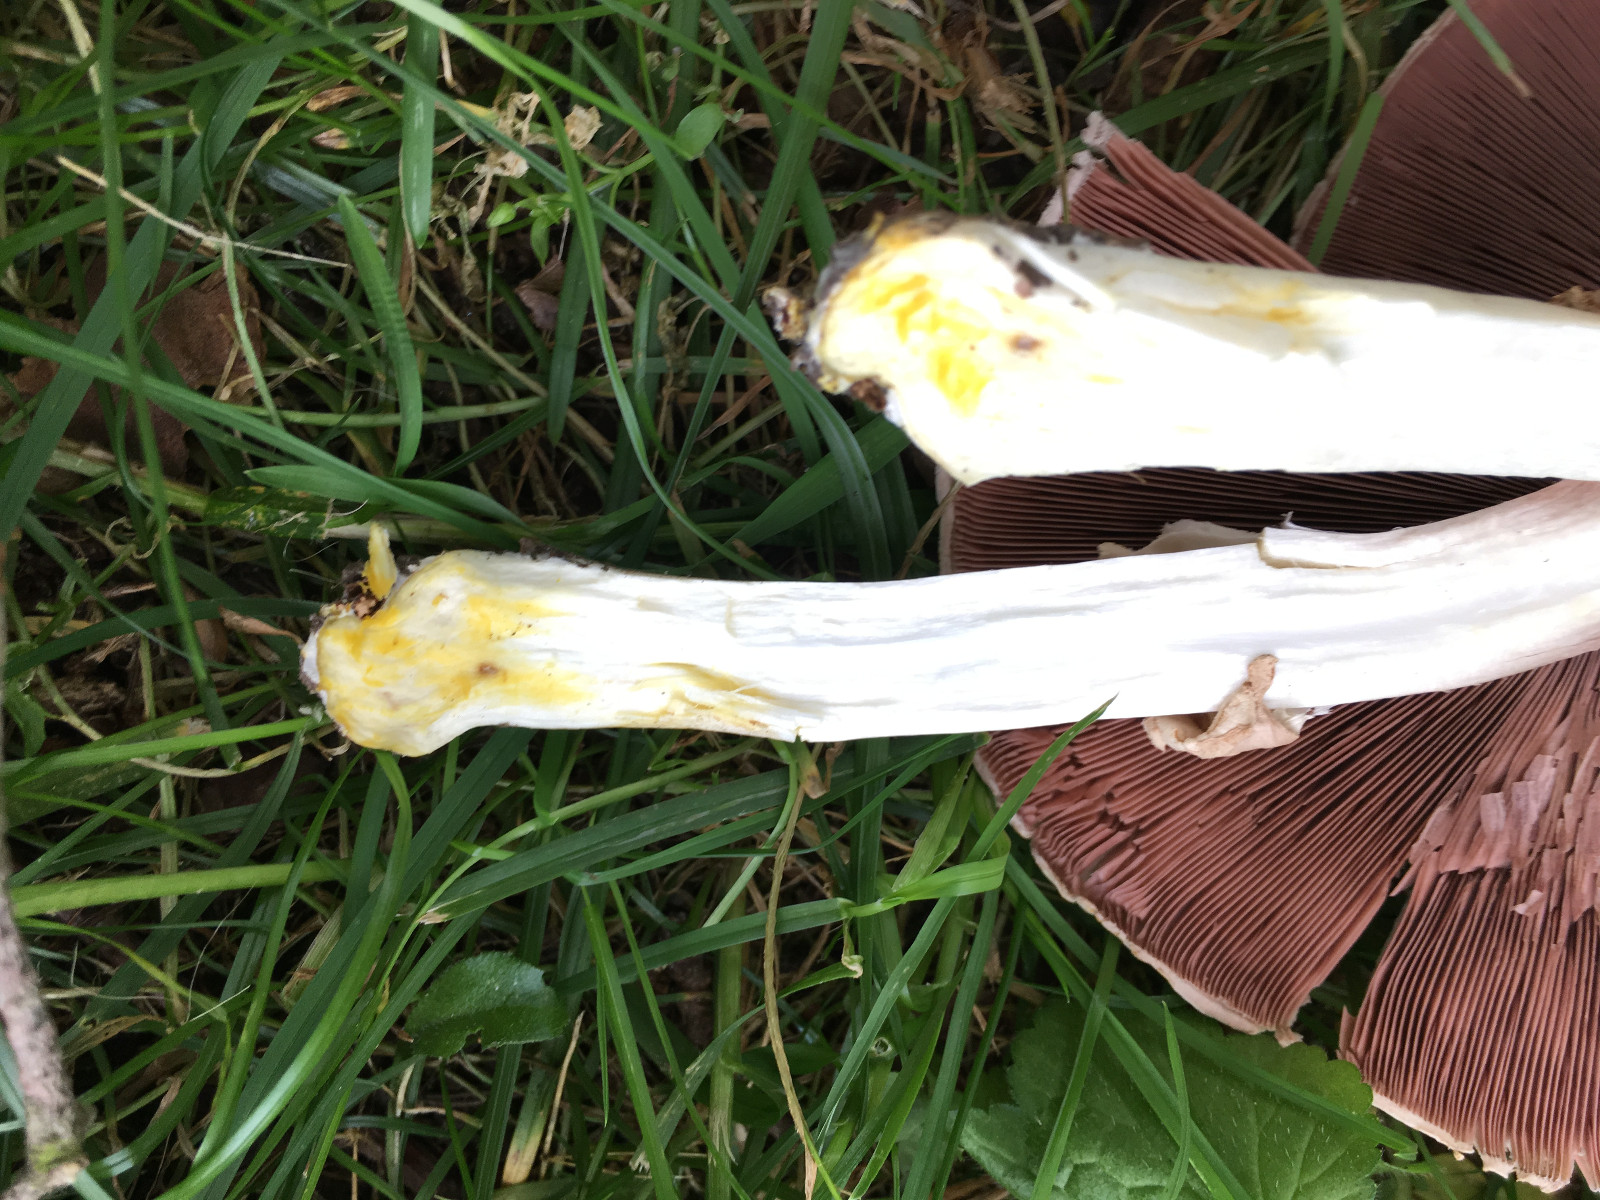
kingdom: Fungi
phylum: Basidiomycota
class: Agaricomycetes
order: Agaricales
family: Agaricaceae
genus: Agaricus
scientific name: Agaricus xanthodermus
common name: karbol-champignon
